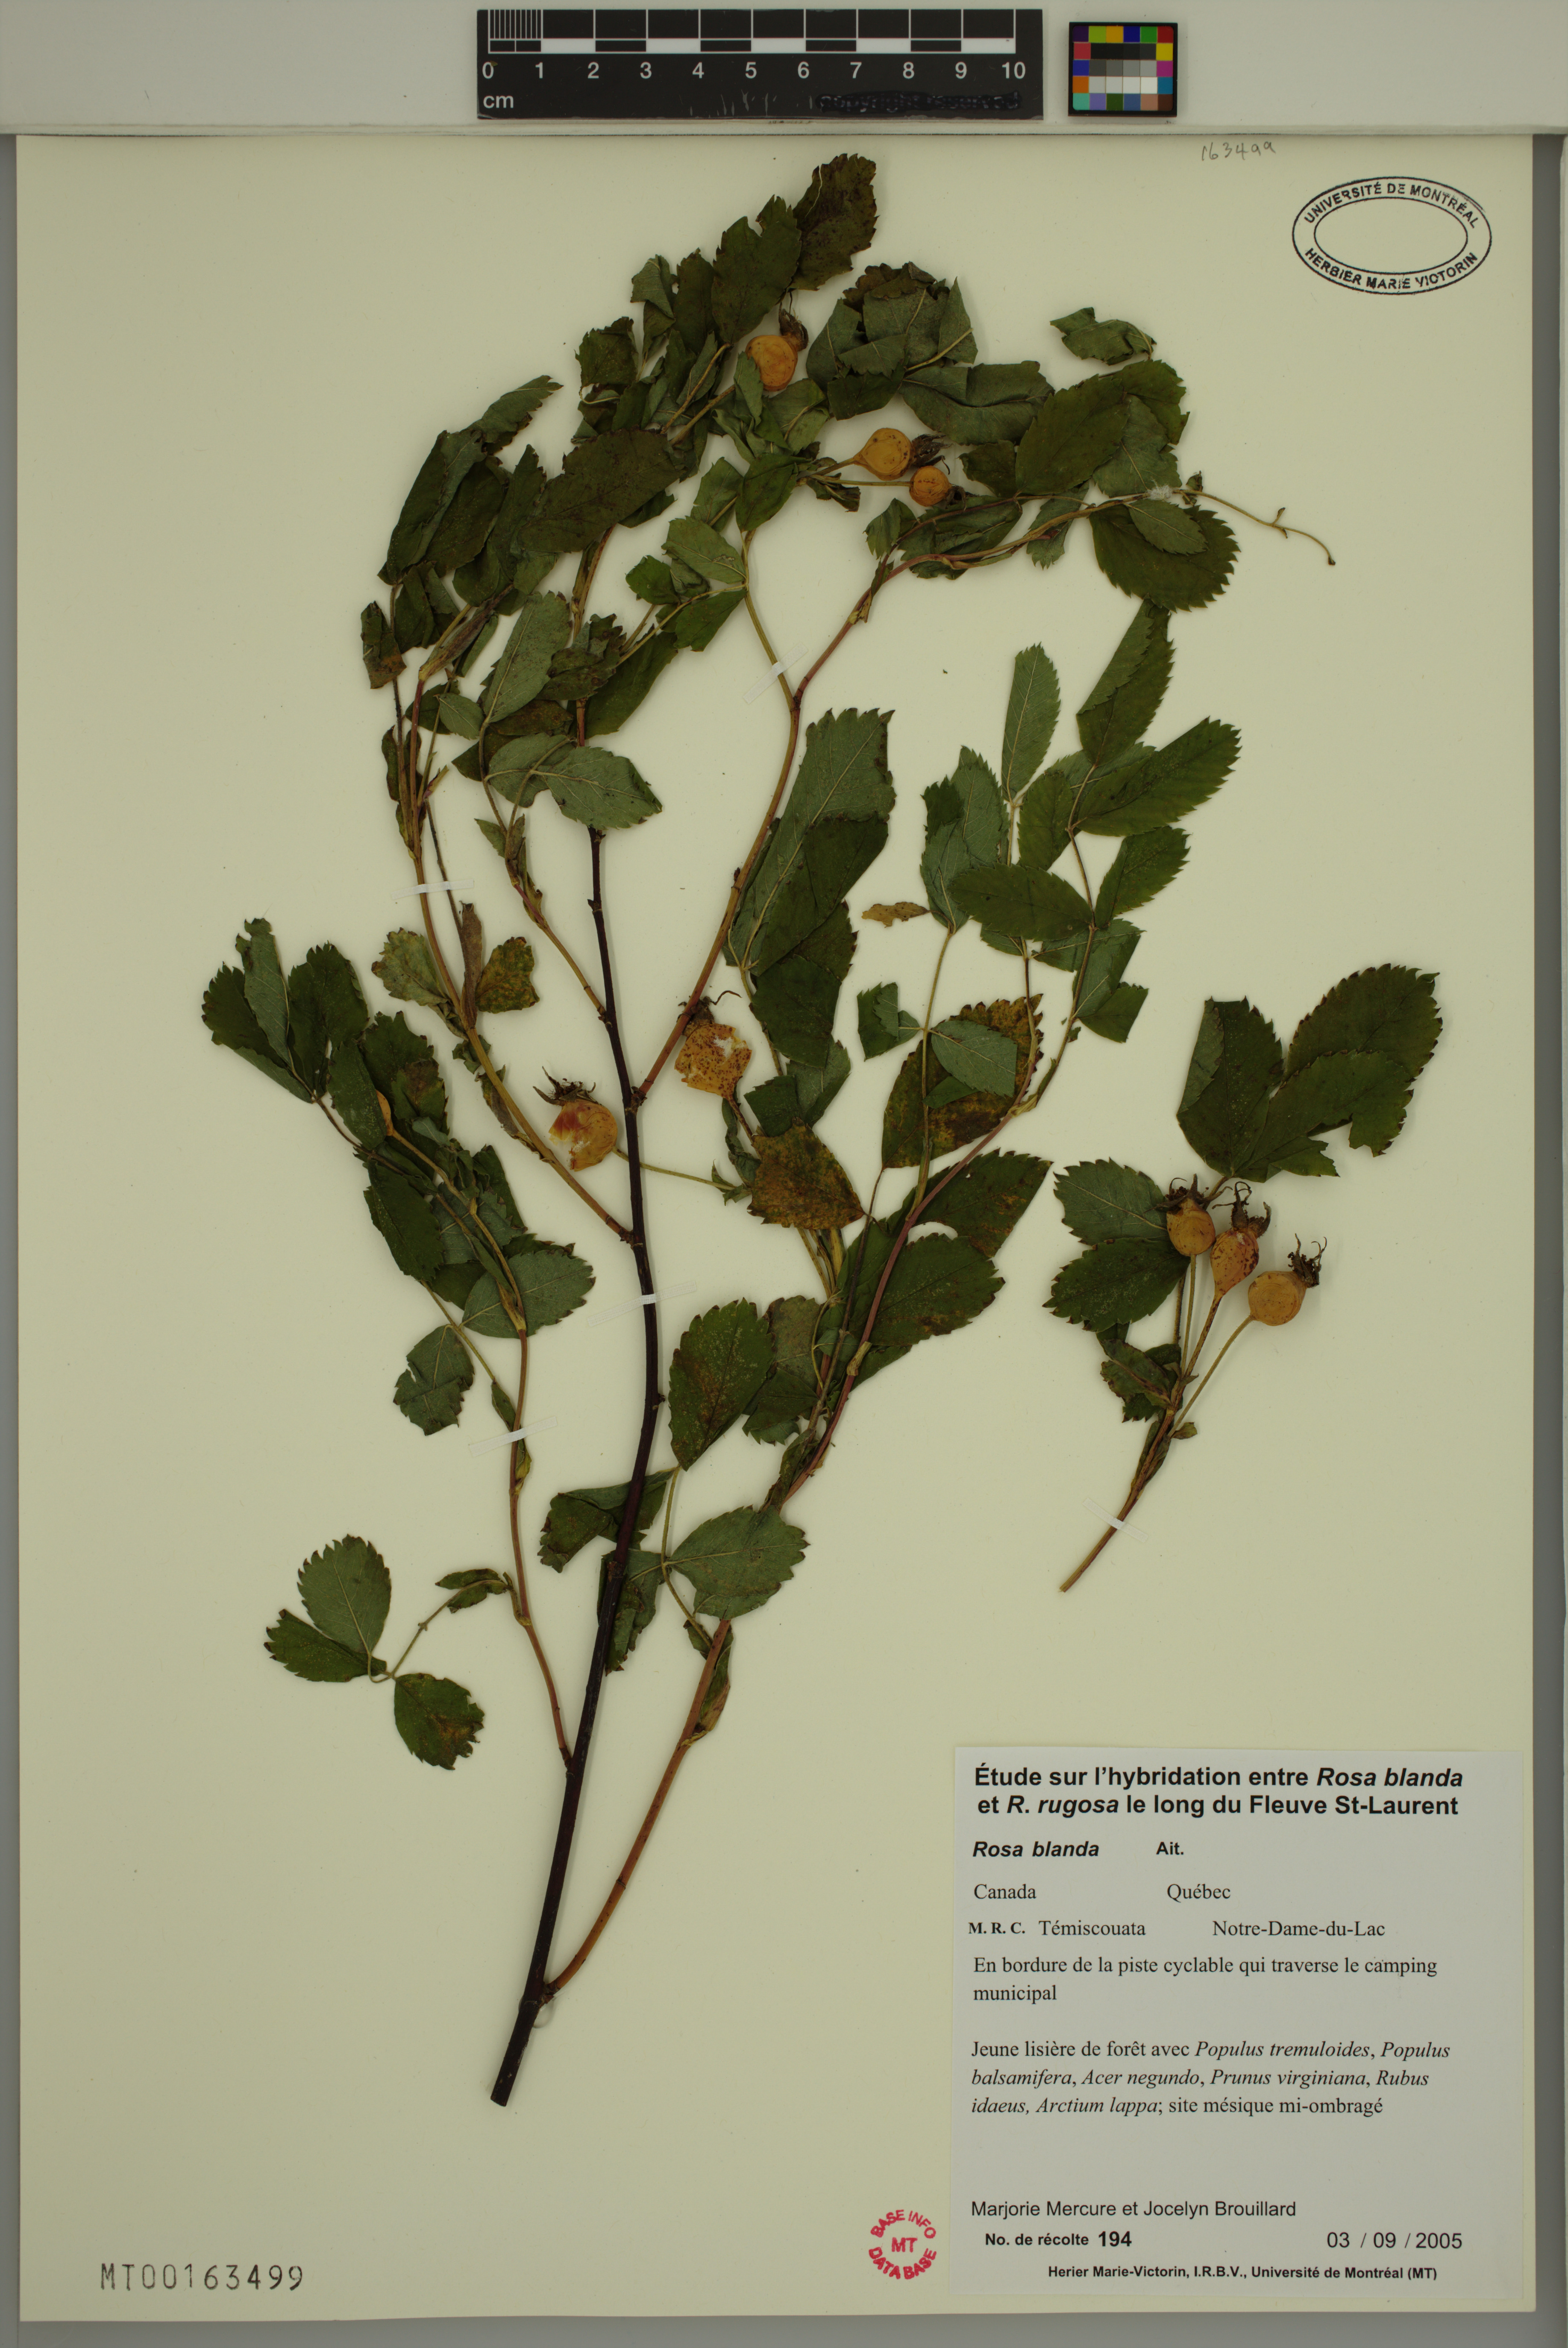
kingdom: Plantae
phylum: Tracheophyta
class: Magnoliopsida
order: Rosales
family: Rosaceae
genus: Rosa
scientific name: Rosa blanda
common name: Smooth rose
